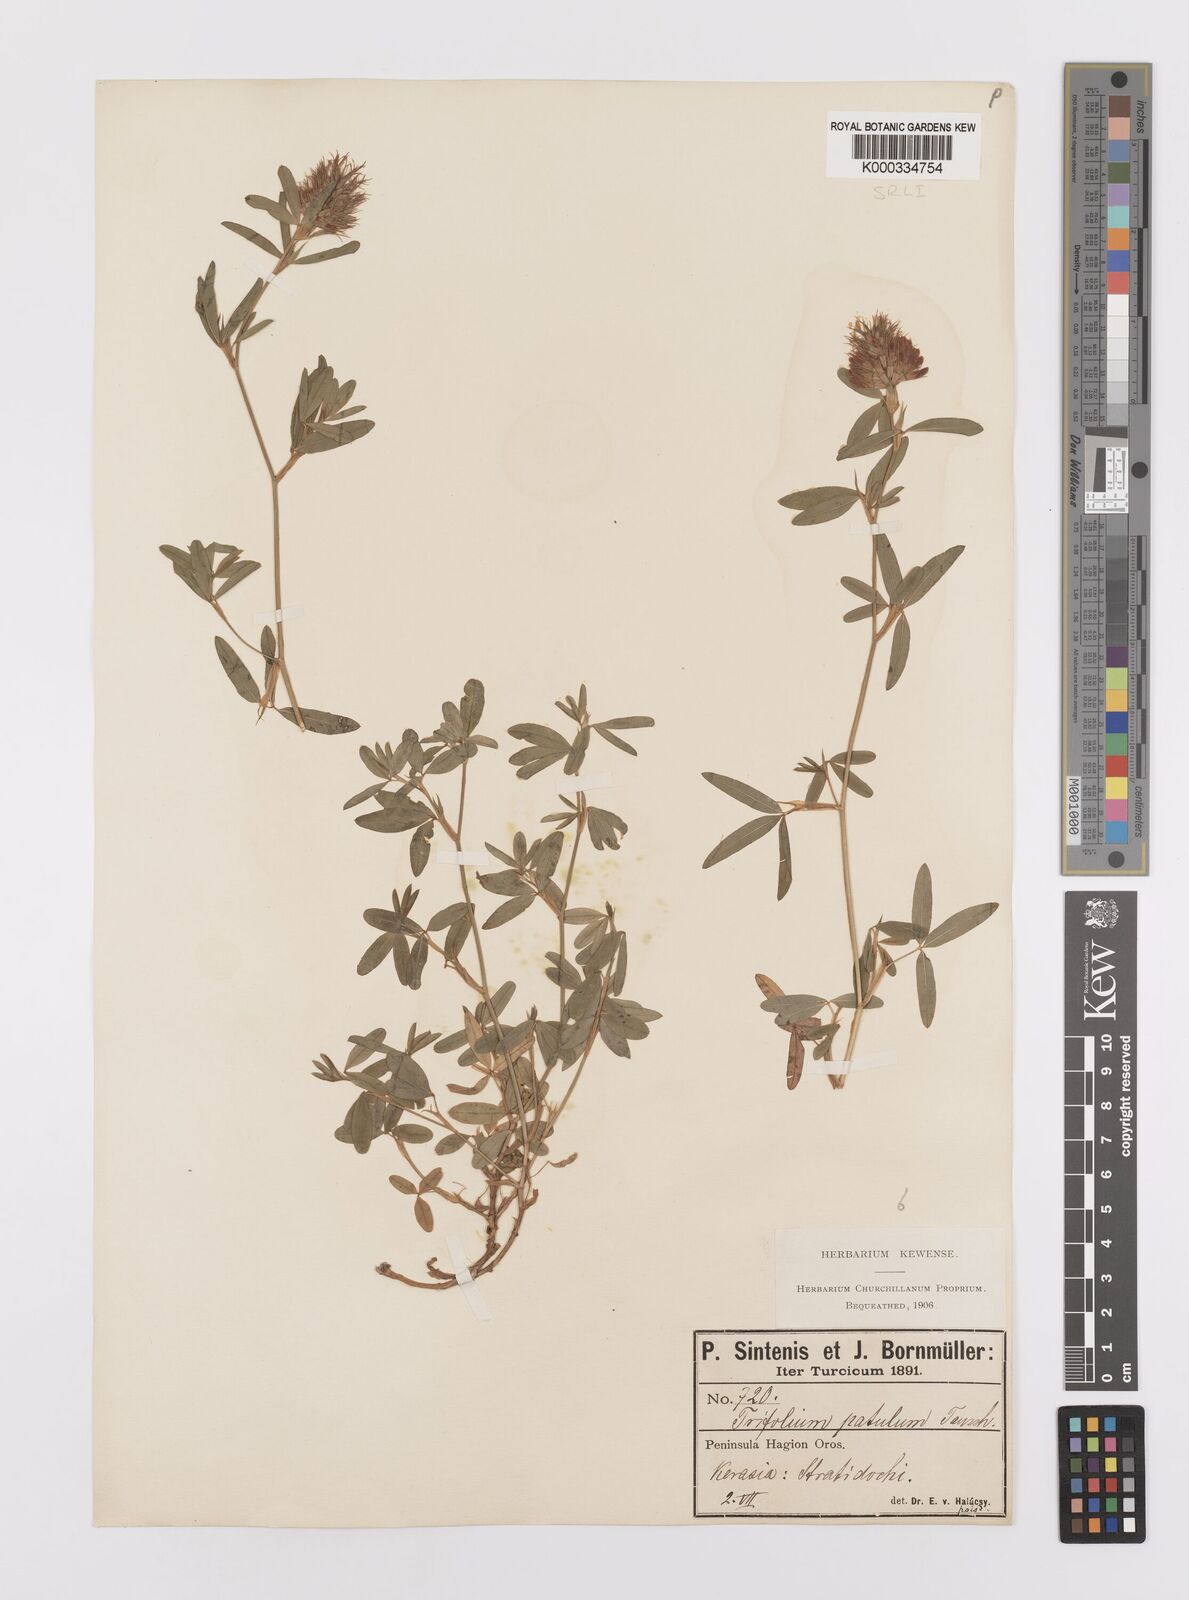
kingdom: Plantae
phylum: Tracheophyta
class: Magnoliopsida
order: Fabales
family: Fabaceae
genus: Trifolium
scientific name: Trifolium patulum
